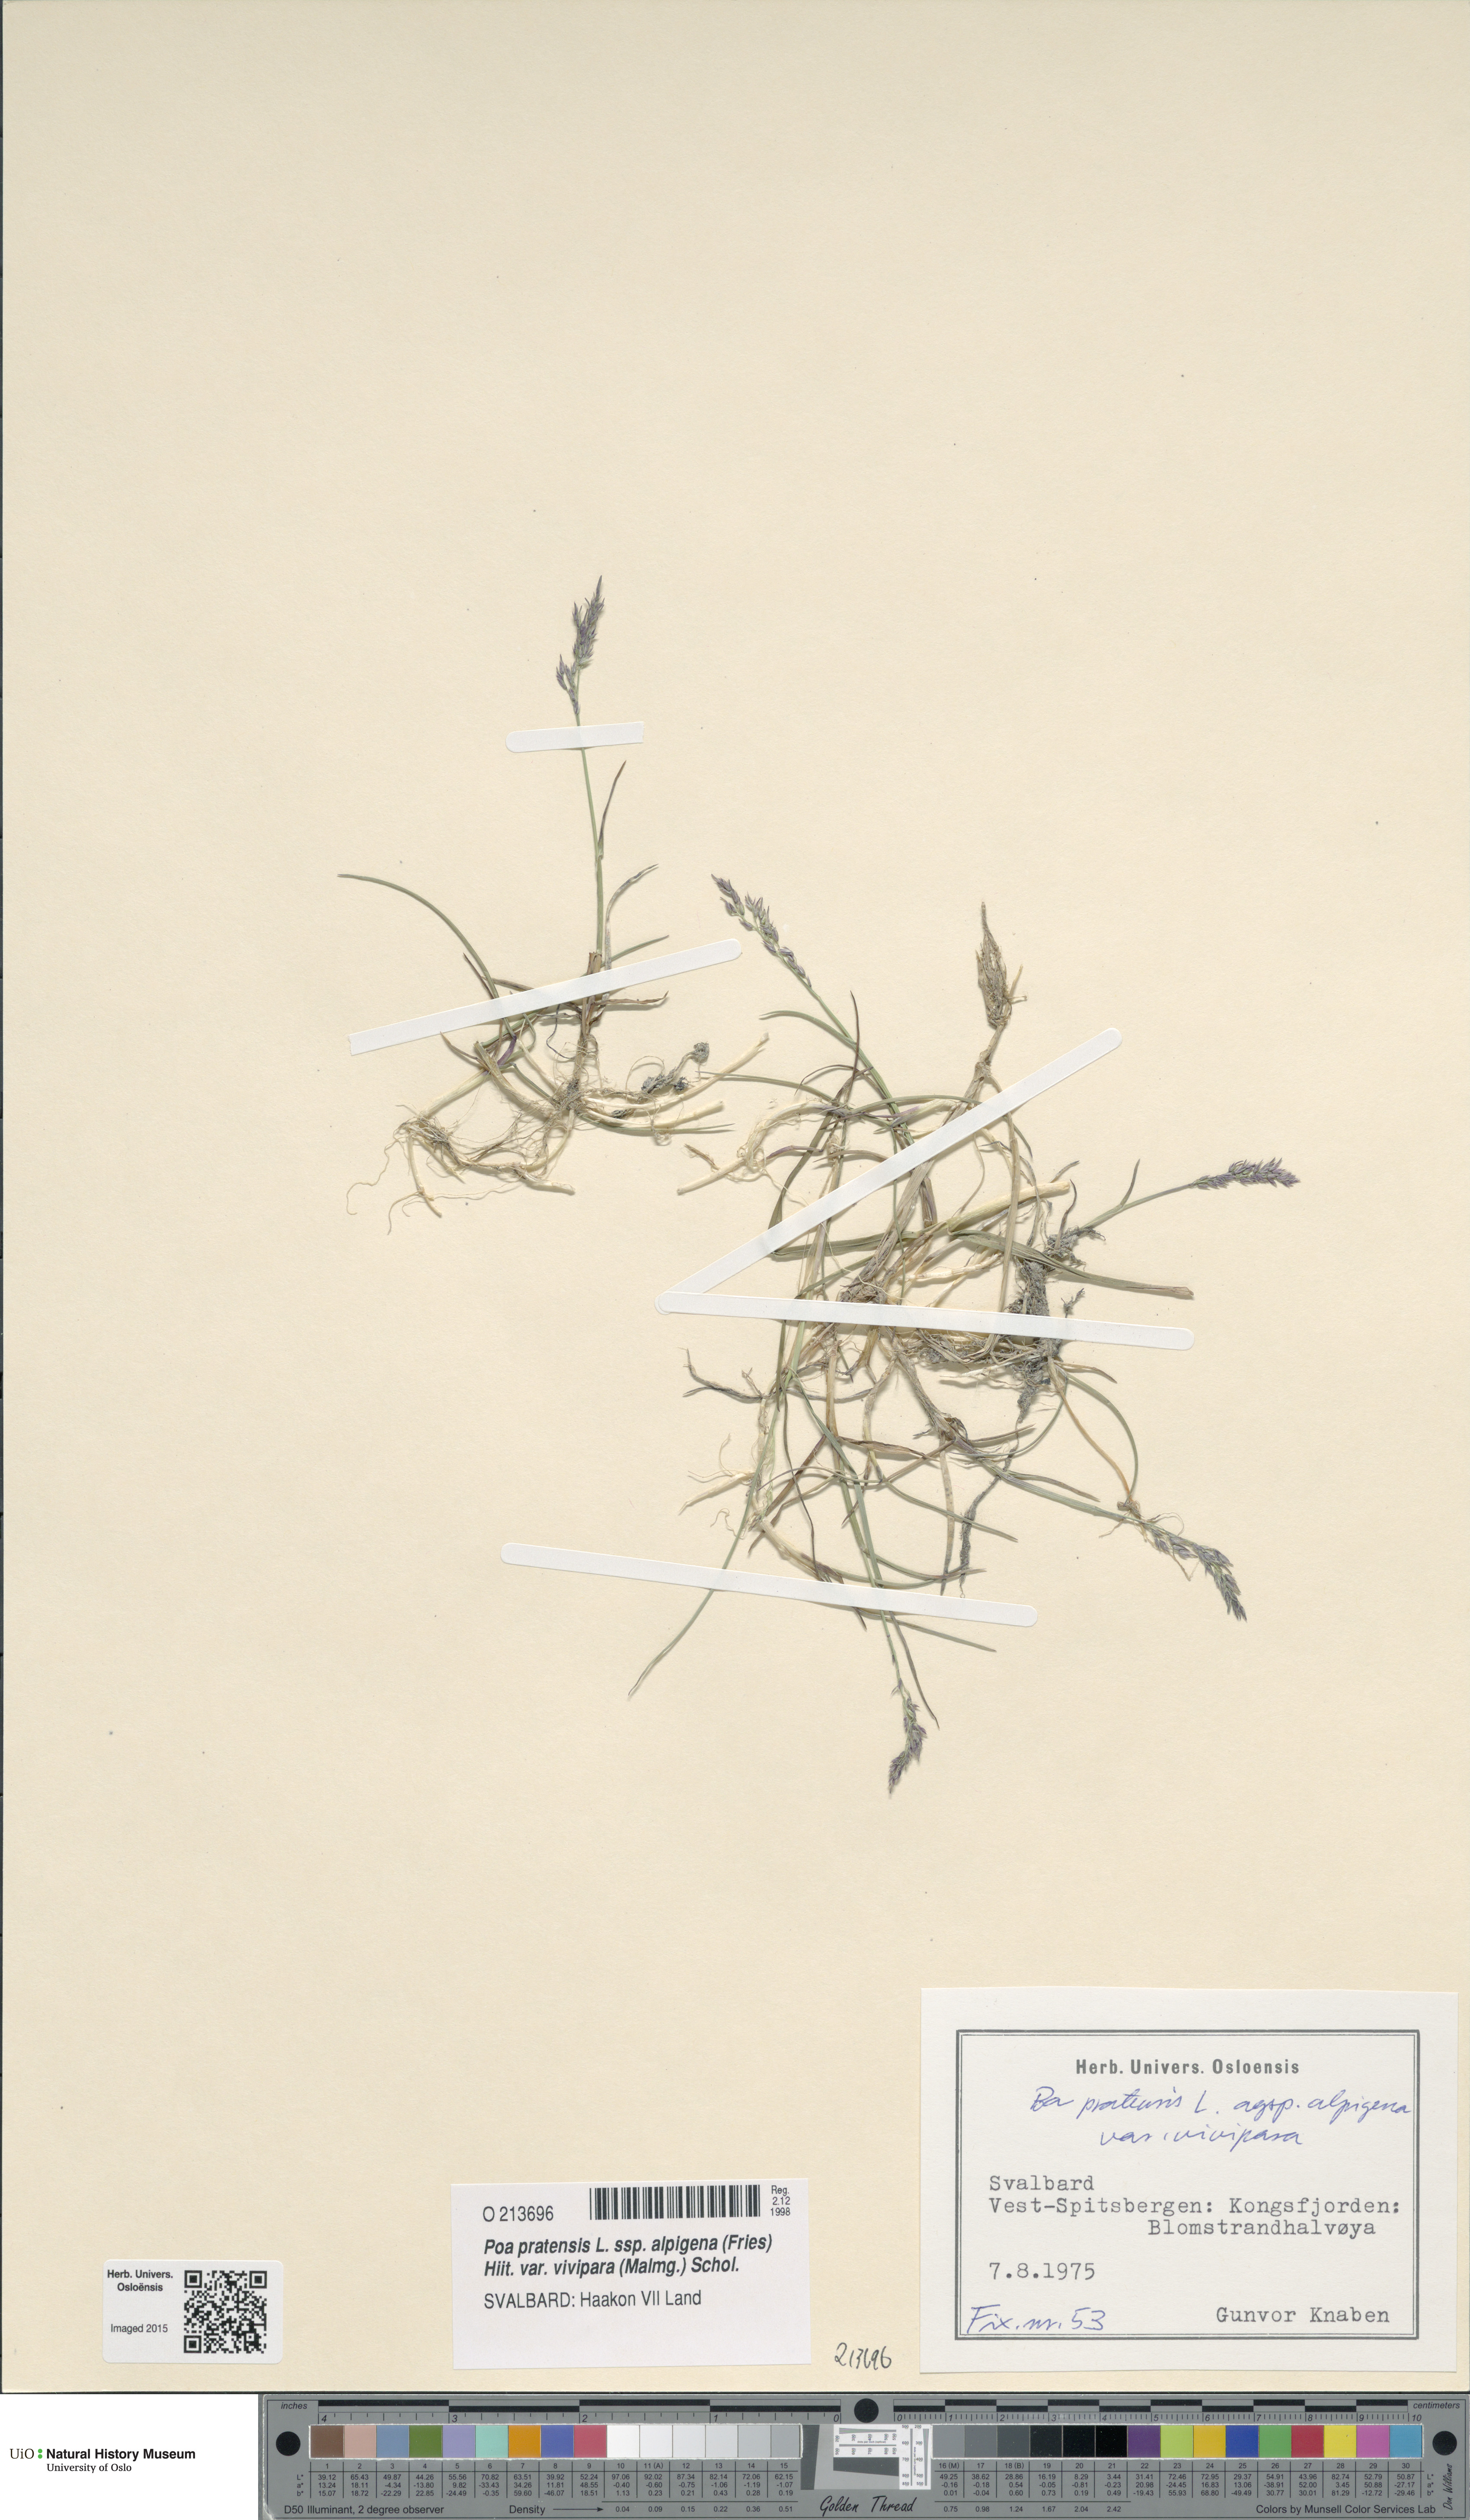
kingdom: Plantae
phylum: Tracheophyta
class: Liliopsida
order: Poales
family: Poaceae
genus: Poa
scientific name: Poa arctica
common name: Arctic bluegrass
